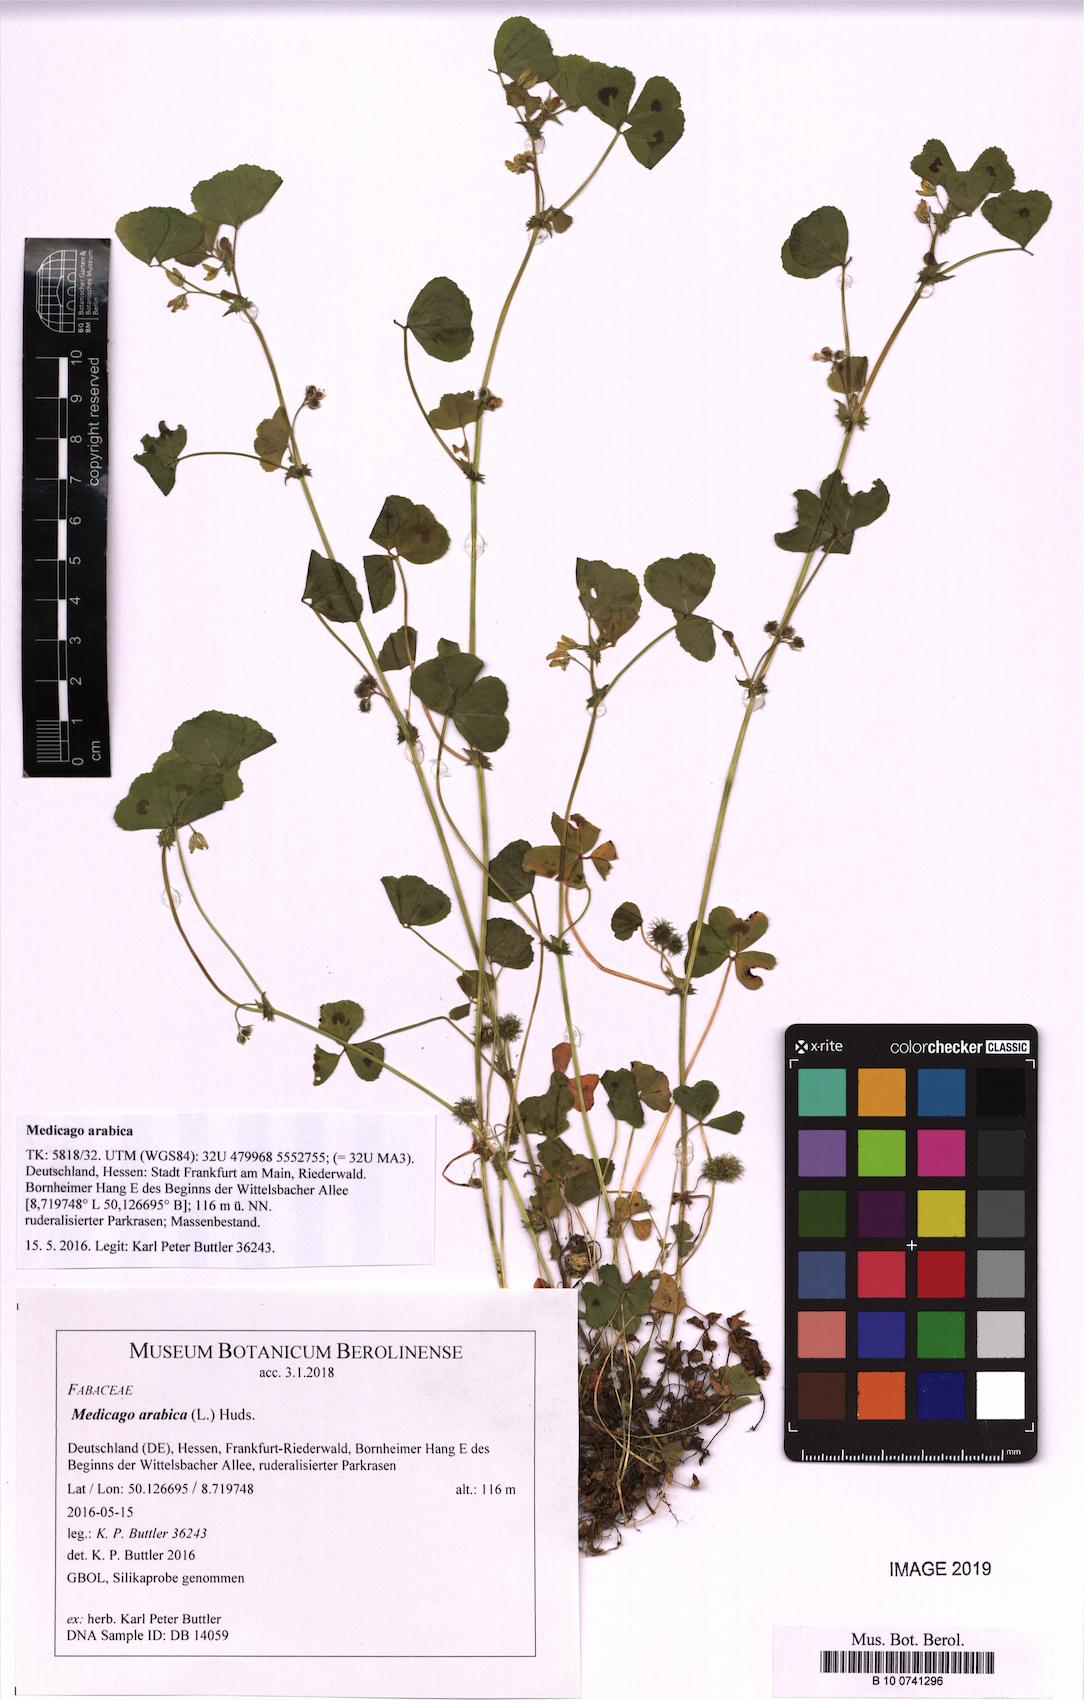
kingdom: Plantae
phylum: Tracheophyta
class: Magnoliopsida
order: Fabales
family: Fabaceae
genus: Medicago
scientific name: Medicago arabica
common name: Spotted medick
